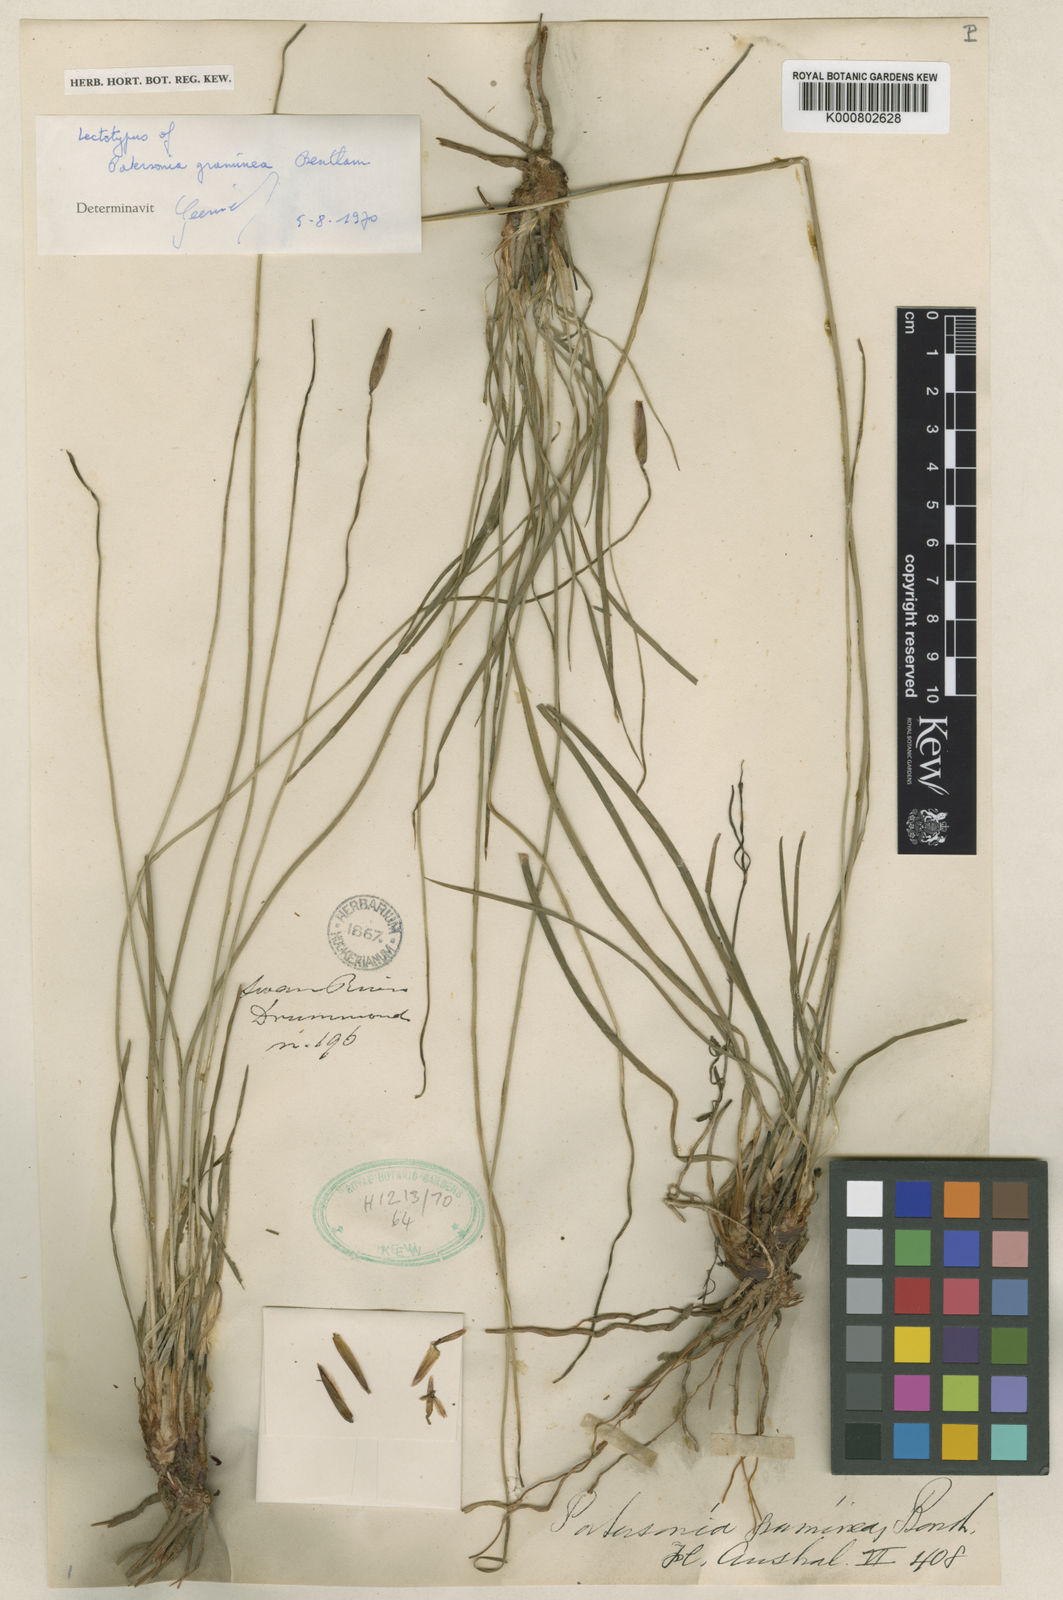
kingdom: Plantae
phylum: Tracheophyta
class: Liliopsida
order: Asparagales
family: Iridaceae
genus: Patersonia
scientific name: Patersonia graminea
